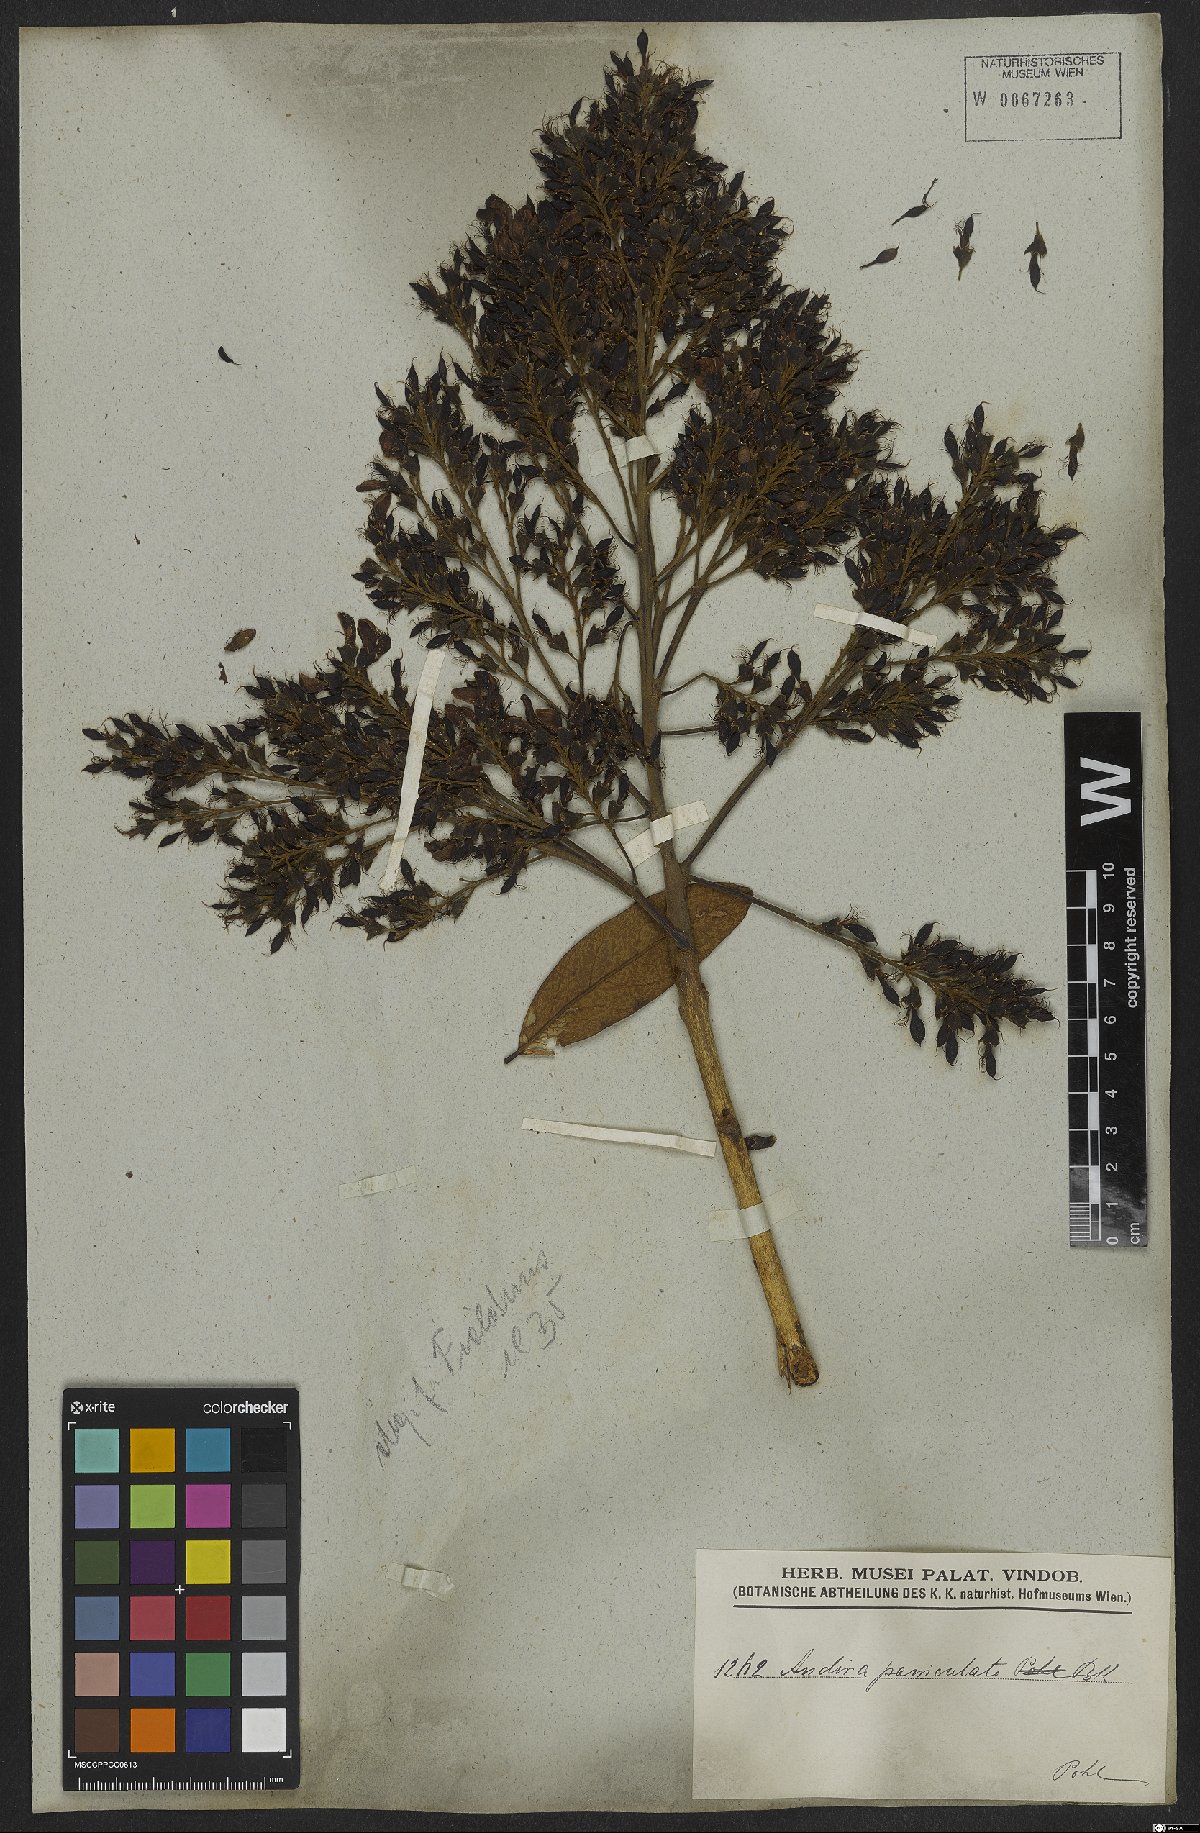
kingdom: Plantae
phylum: Tracheophyta
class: Magnoliopsida
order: Fabales
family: Fabaceae
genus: Andira
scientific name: Andira vermifuga
